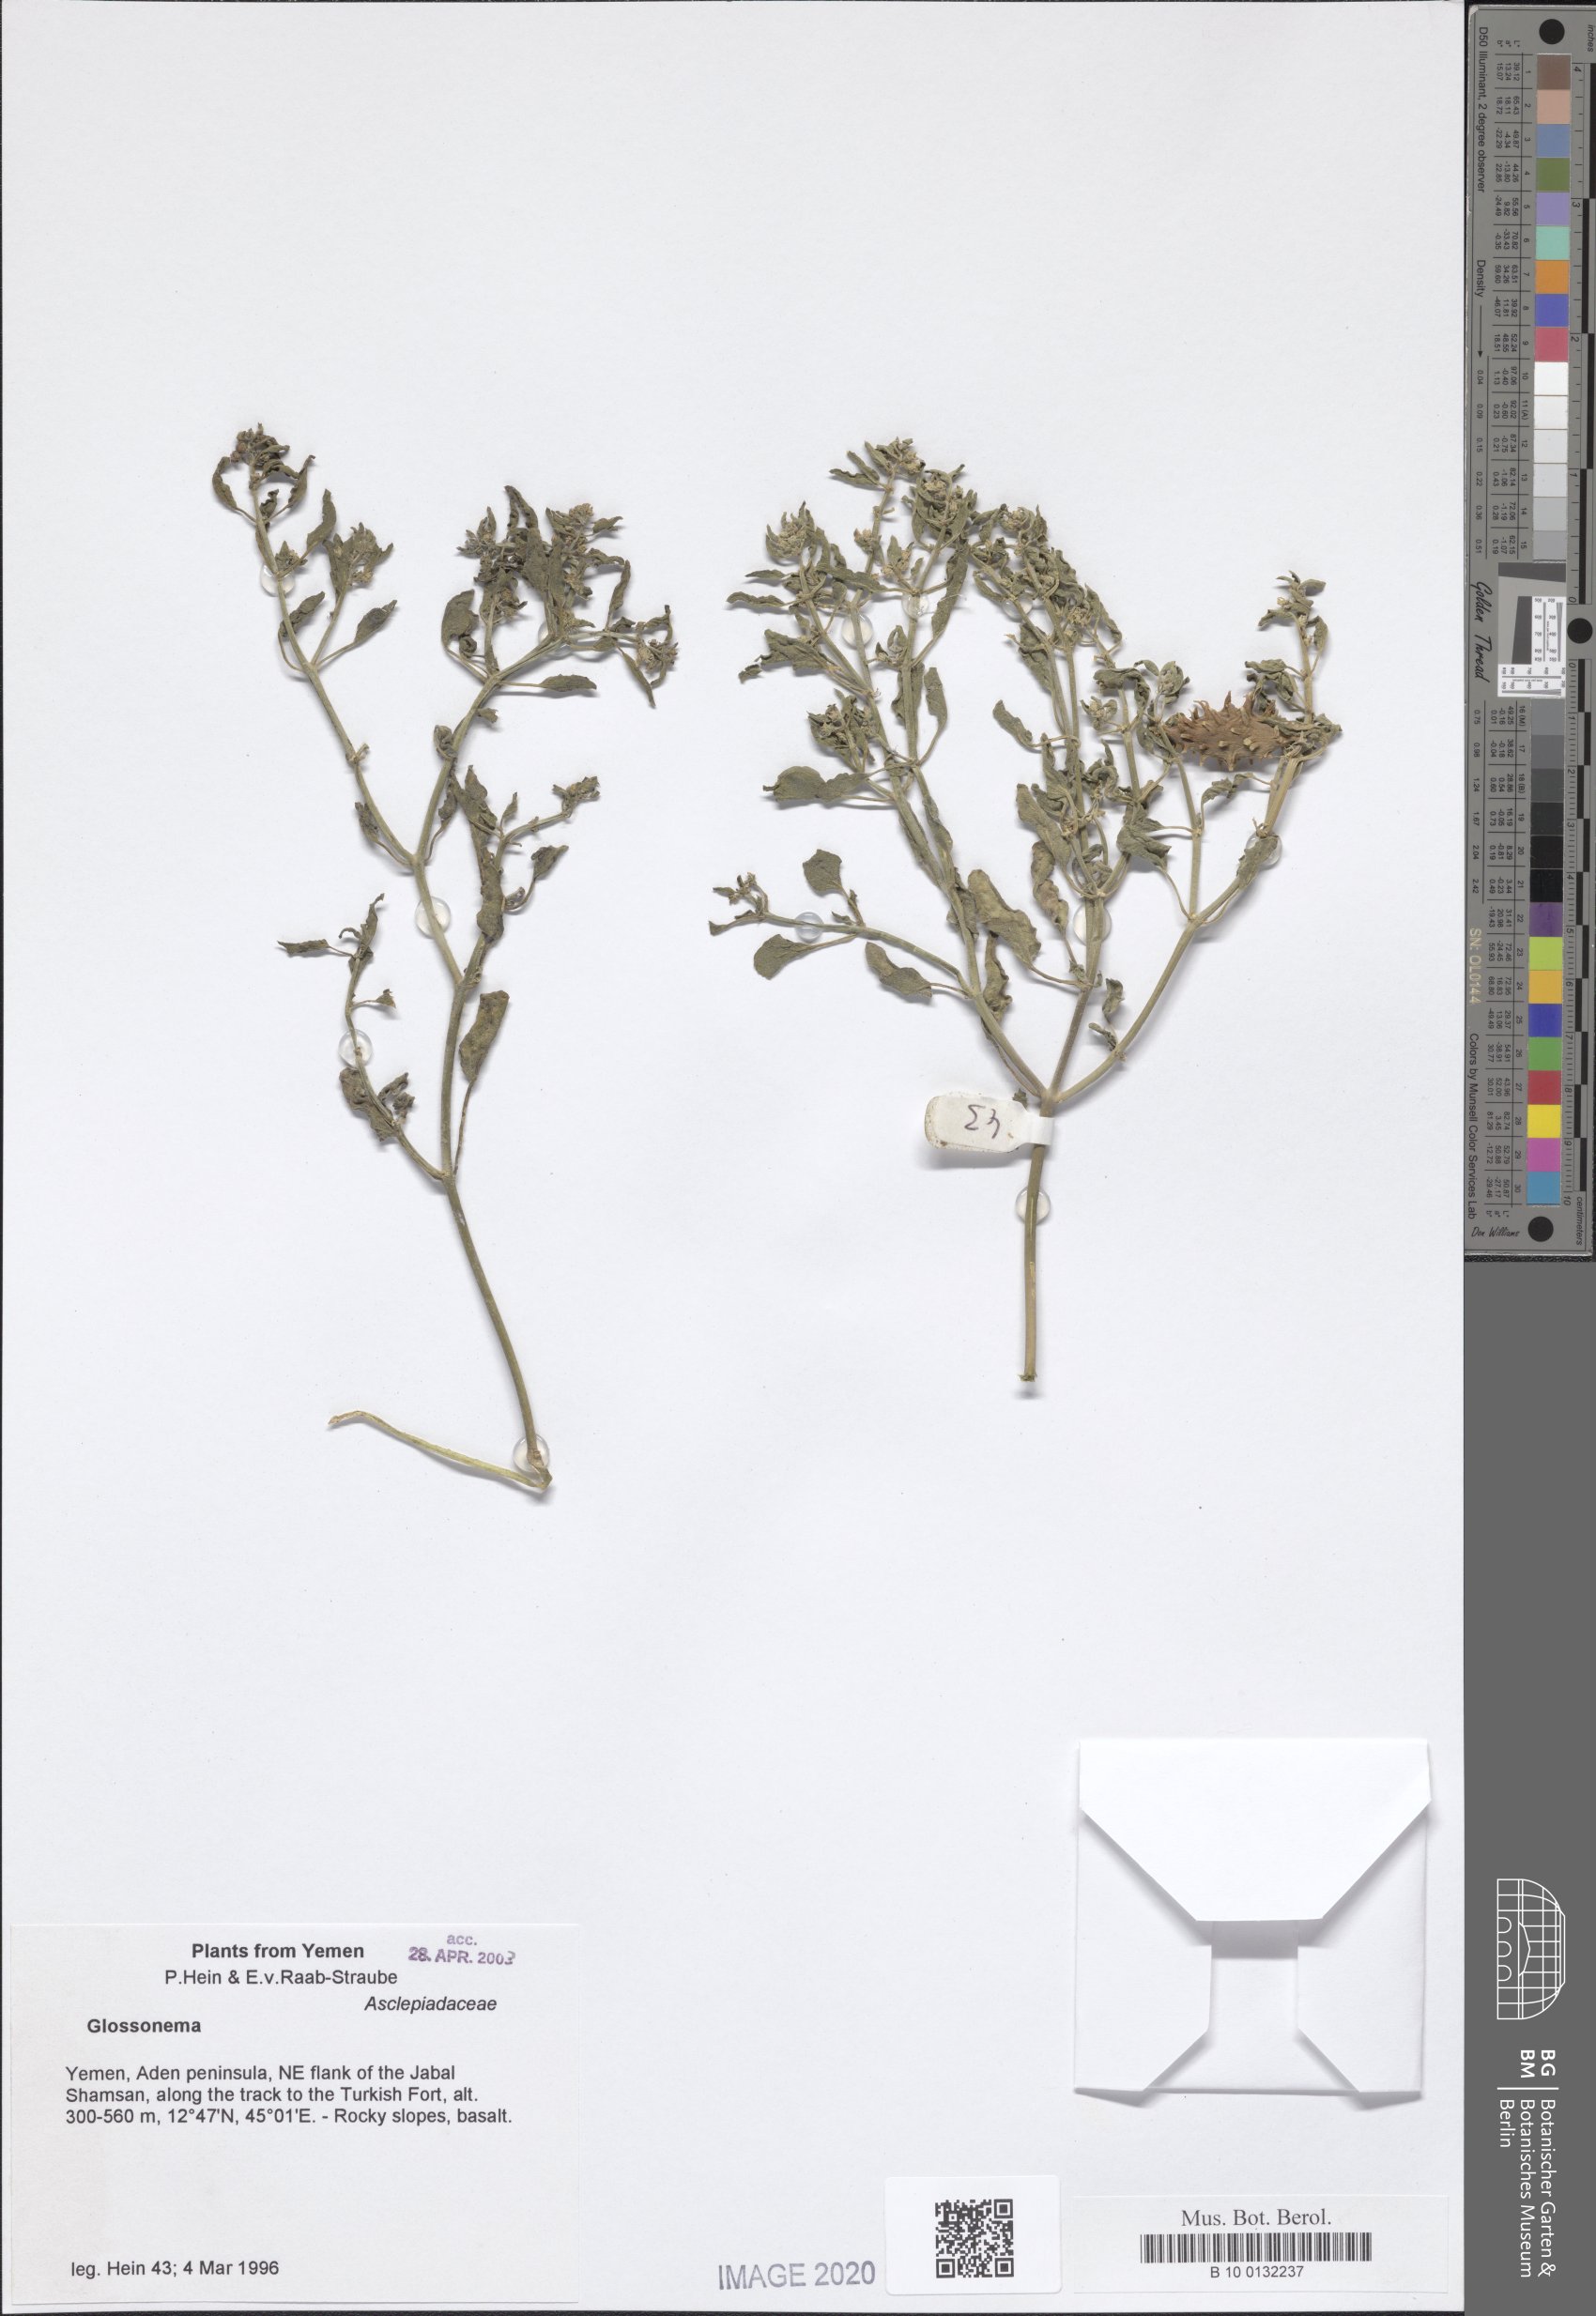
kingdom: Plantae
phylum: Tracheophyta
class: Magnoliopsida
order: Gentianales
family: Apocynaceae
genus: Cynanchum
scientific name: Cynanchum boveanum
